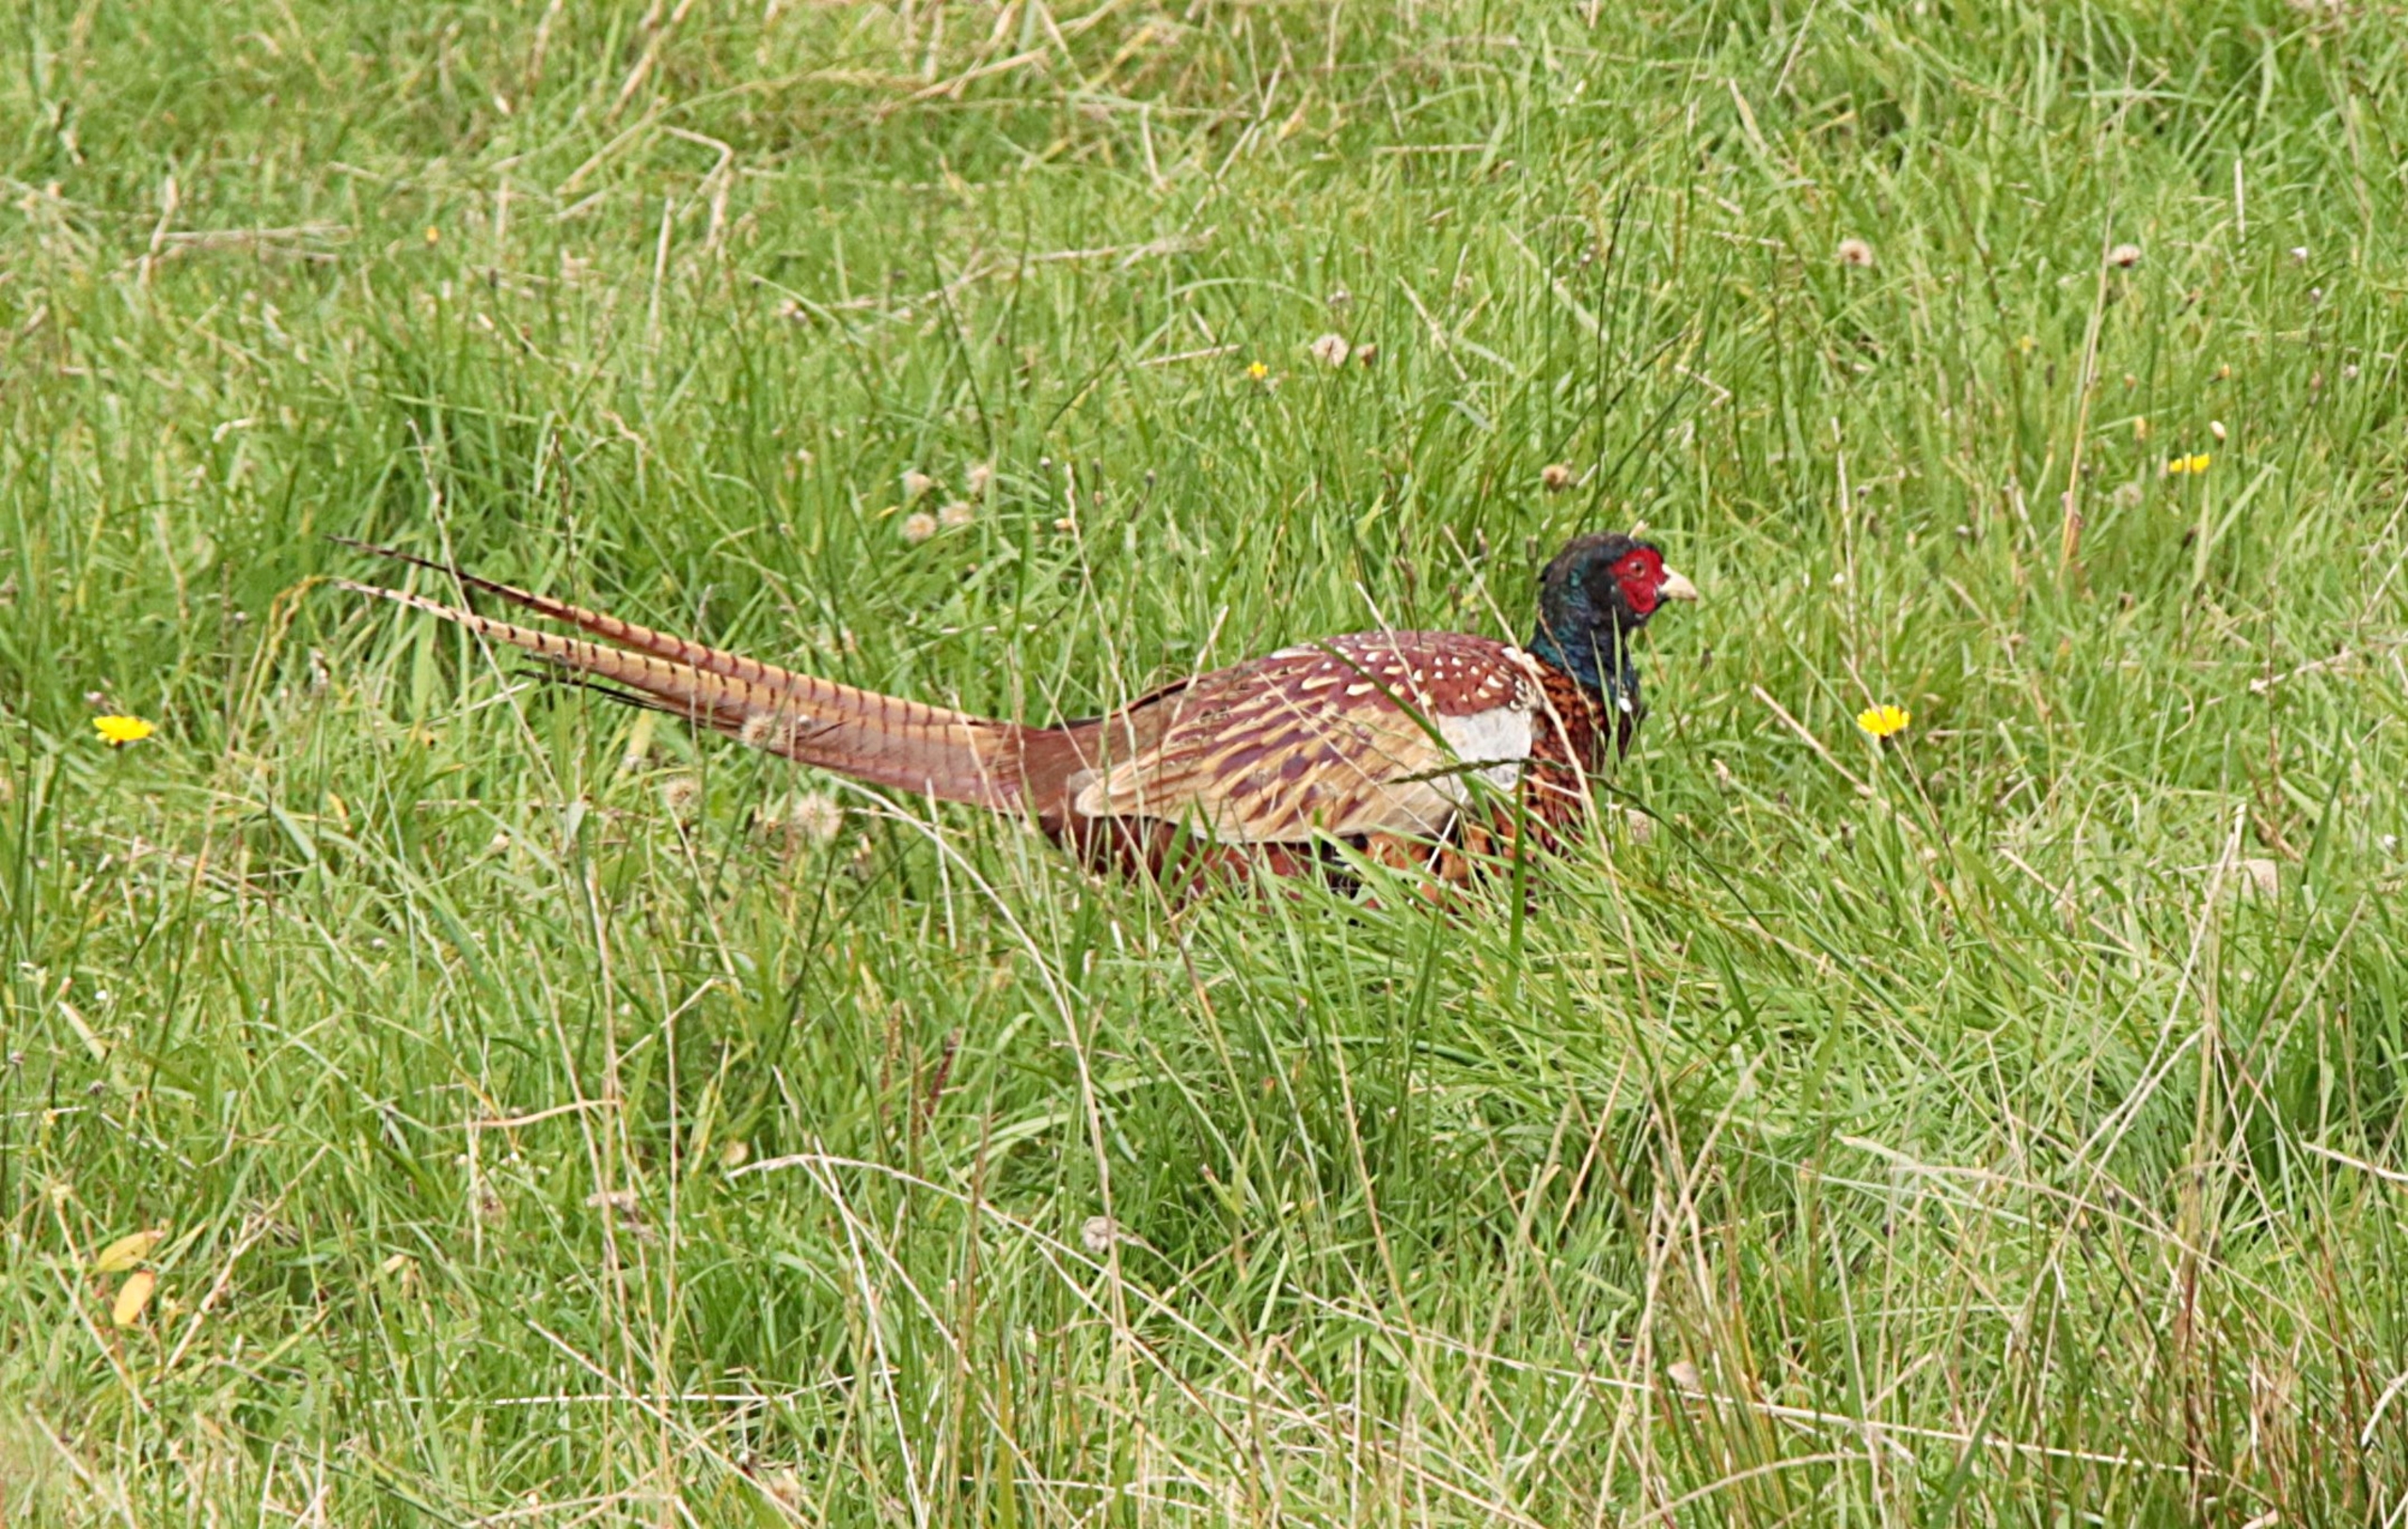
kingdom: Animalia
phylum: Chordata
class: Aves
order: Galliformes
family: Phasianidae
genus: Phasianus
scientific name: Phasianus colchicus
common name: Fasan
